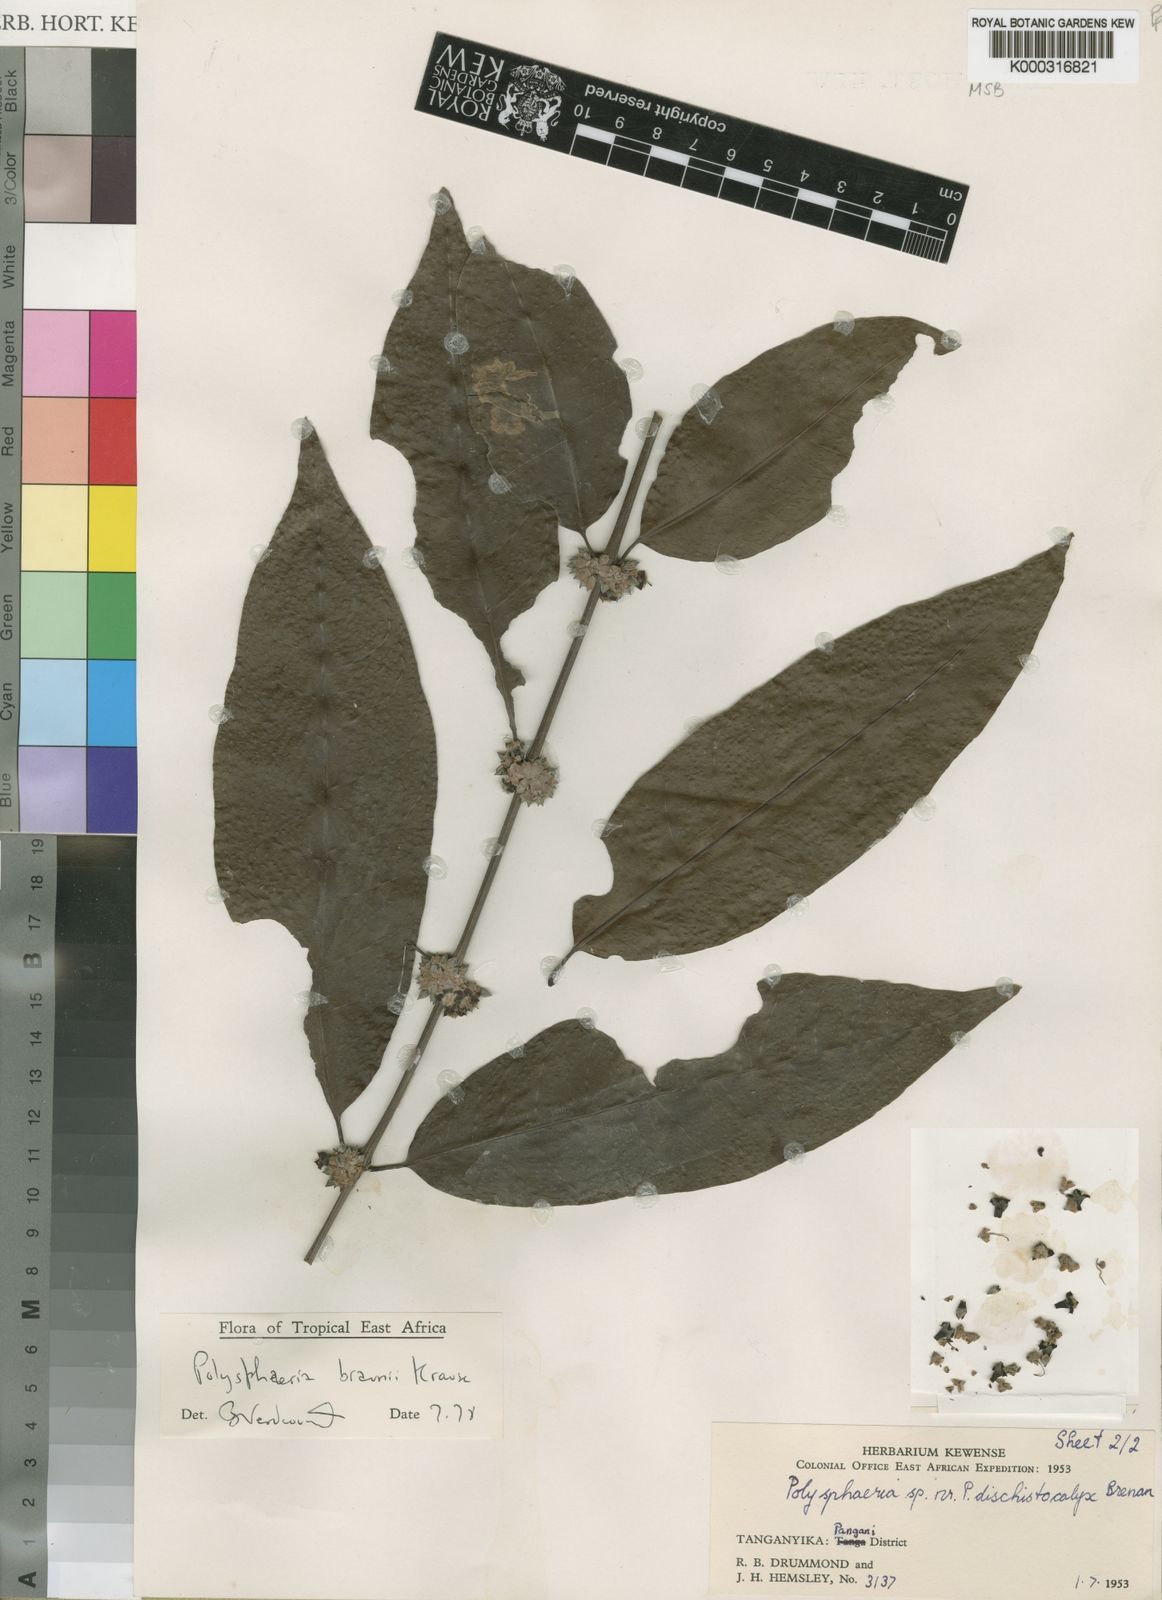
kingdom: Plantae
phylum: Tracheophyta
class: Magnoliopsida
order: Gentianales
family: Rubiaceae
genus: Polysphaeria
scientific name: Polysphaeria braunii
